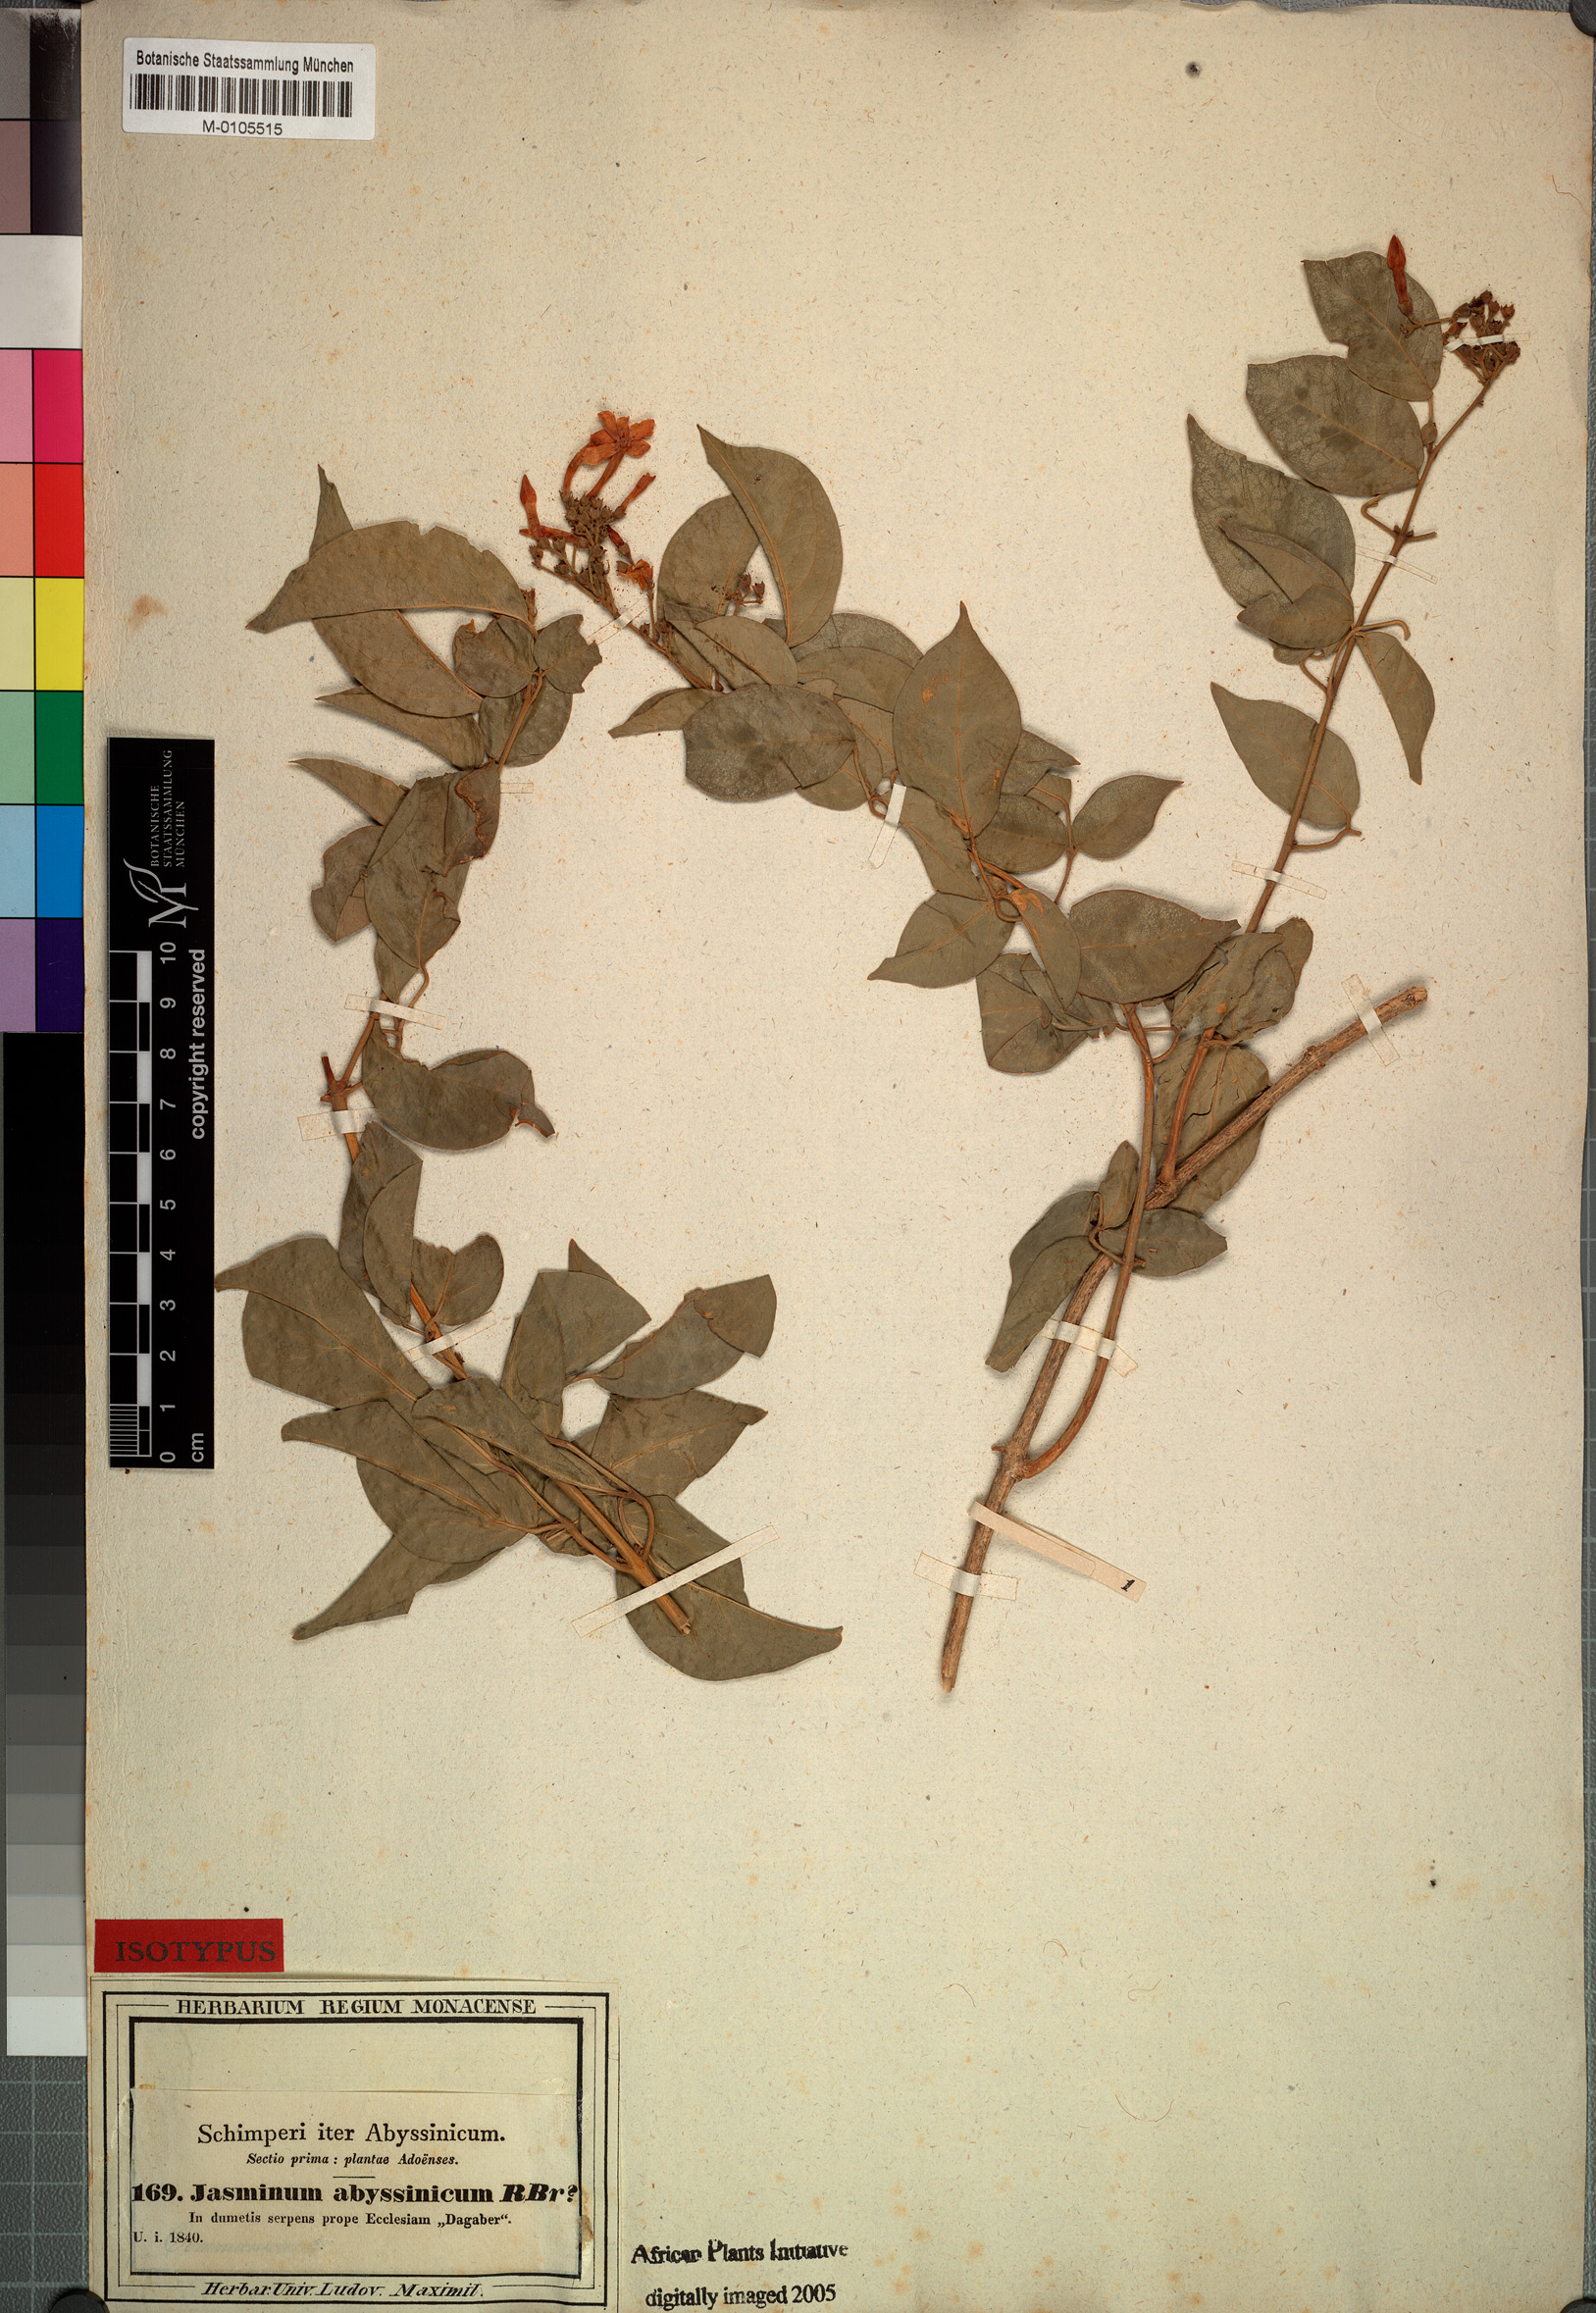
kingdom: Plantae
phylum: Tracheophyta
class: Magnoliopsida
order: Lamiales
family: Oleaceae
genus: Jasminum
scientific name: Jasminum abyssinicum
